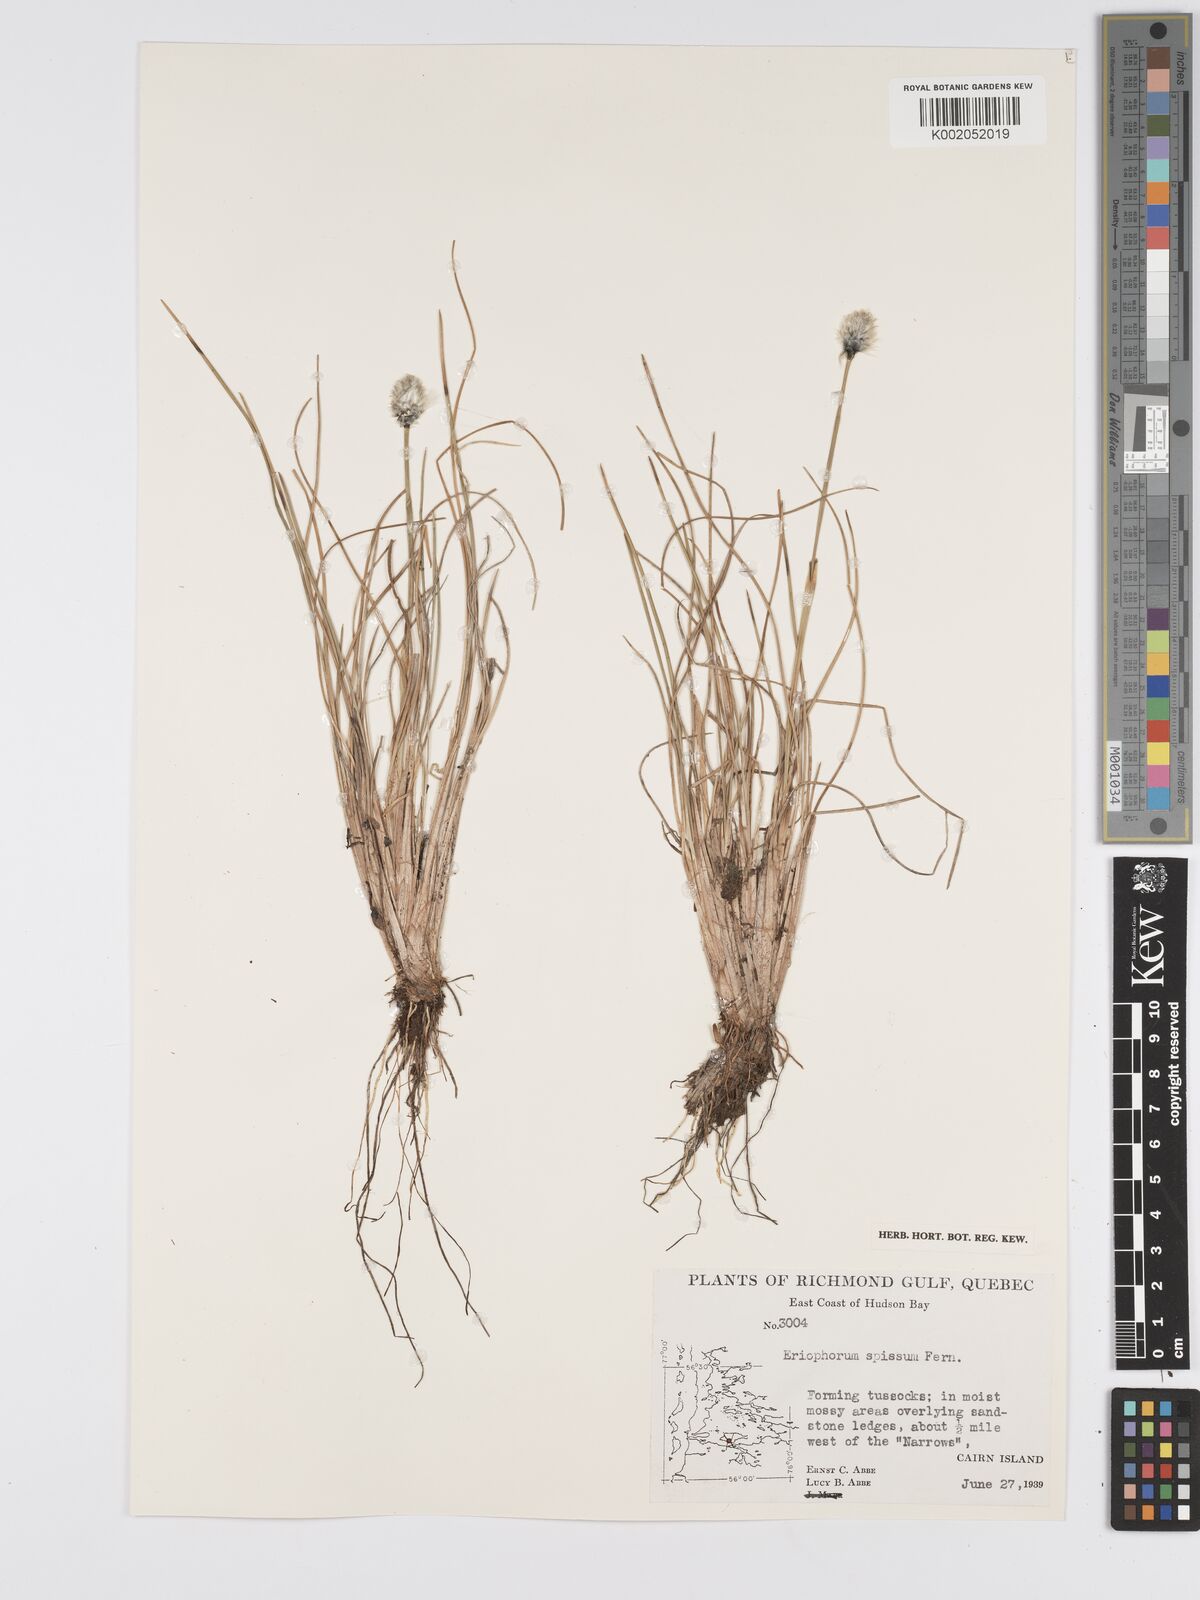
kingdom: Plantae
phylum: Tracheophyta
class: Liliopsida
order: Poales
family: Cyperaceae
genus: Eriophorum
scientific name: Eriophorum vaginatum
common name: Hare's-tail cottongrass
